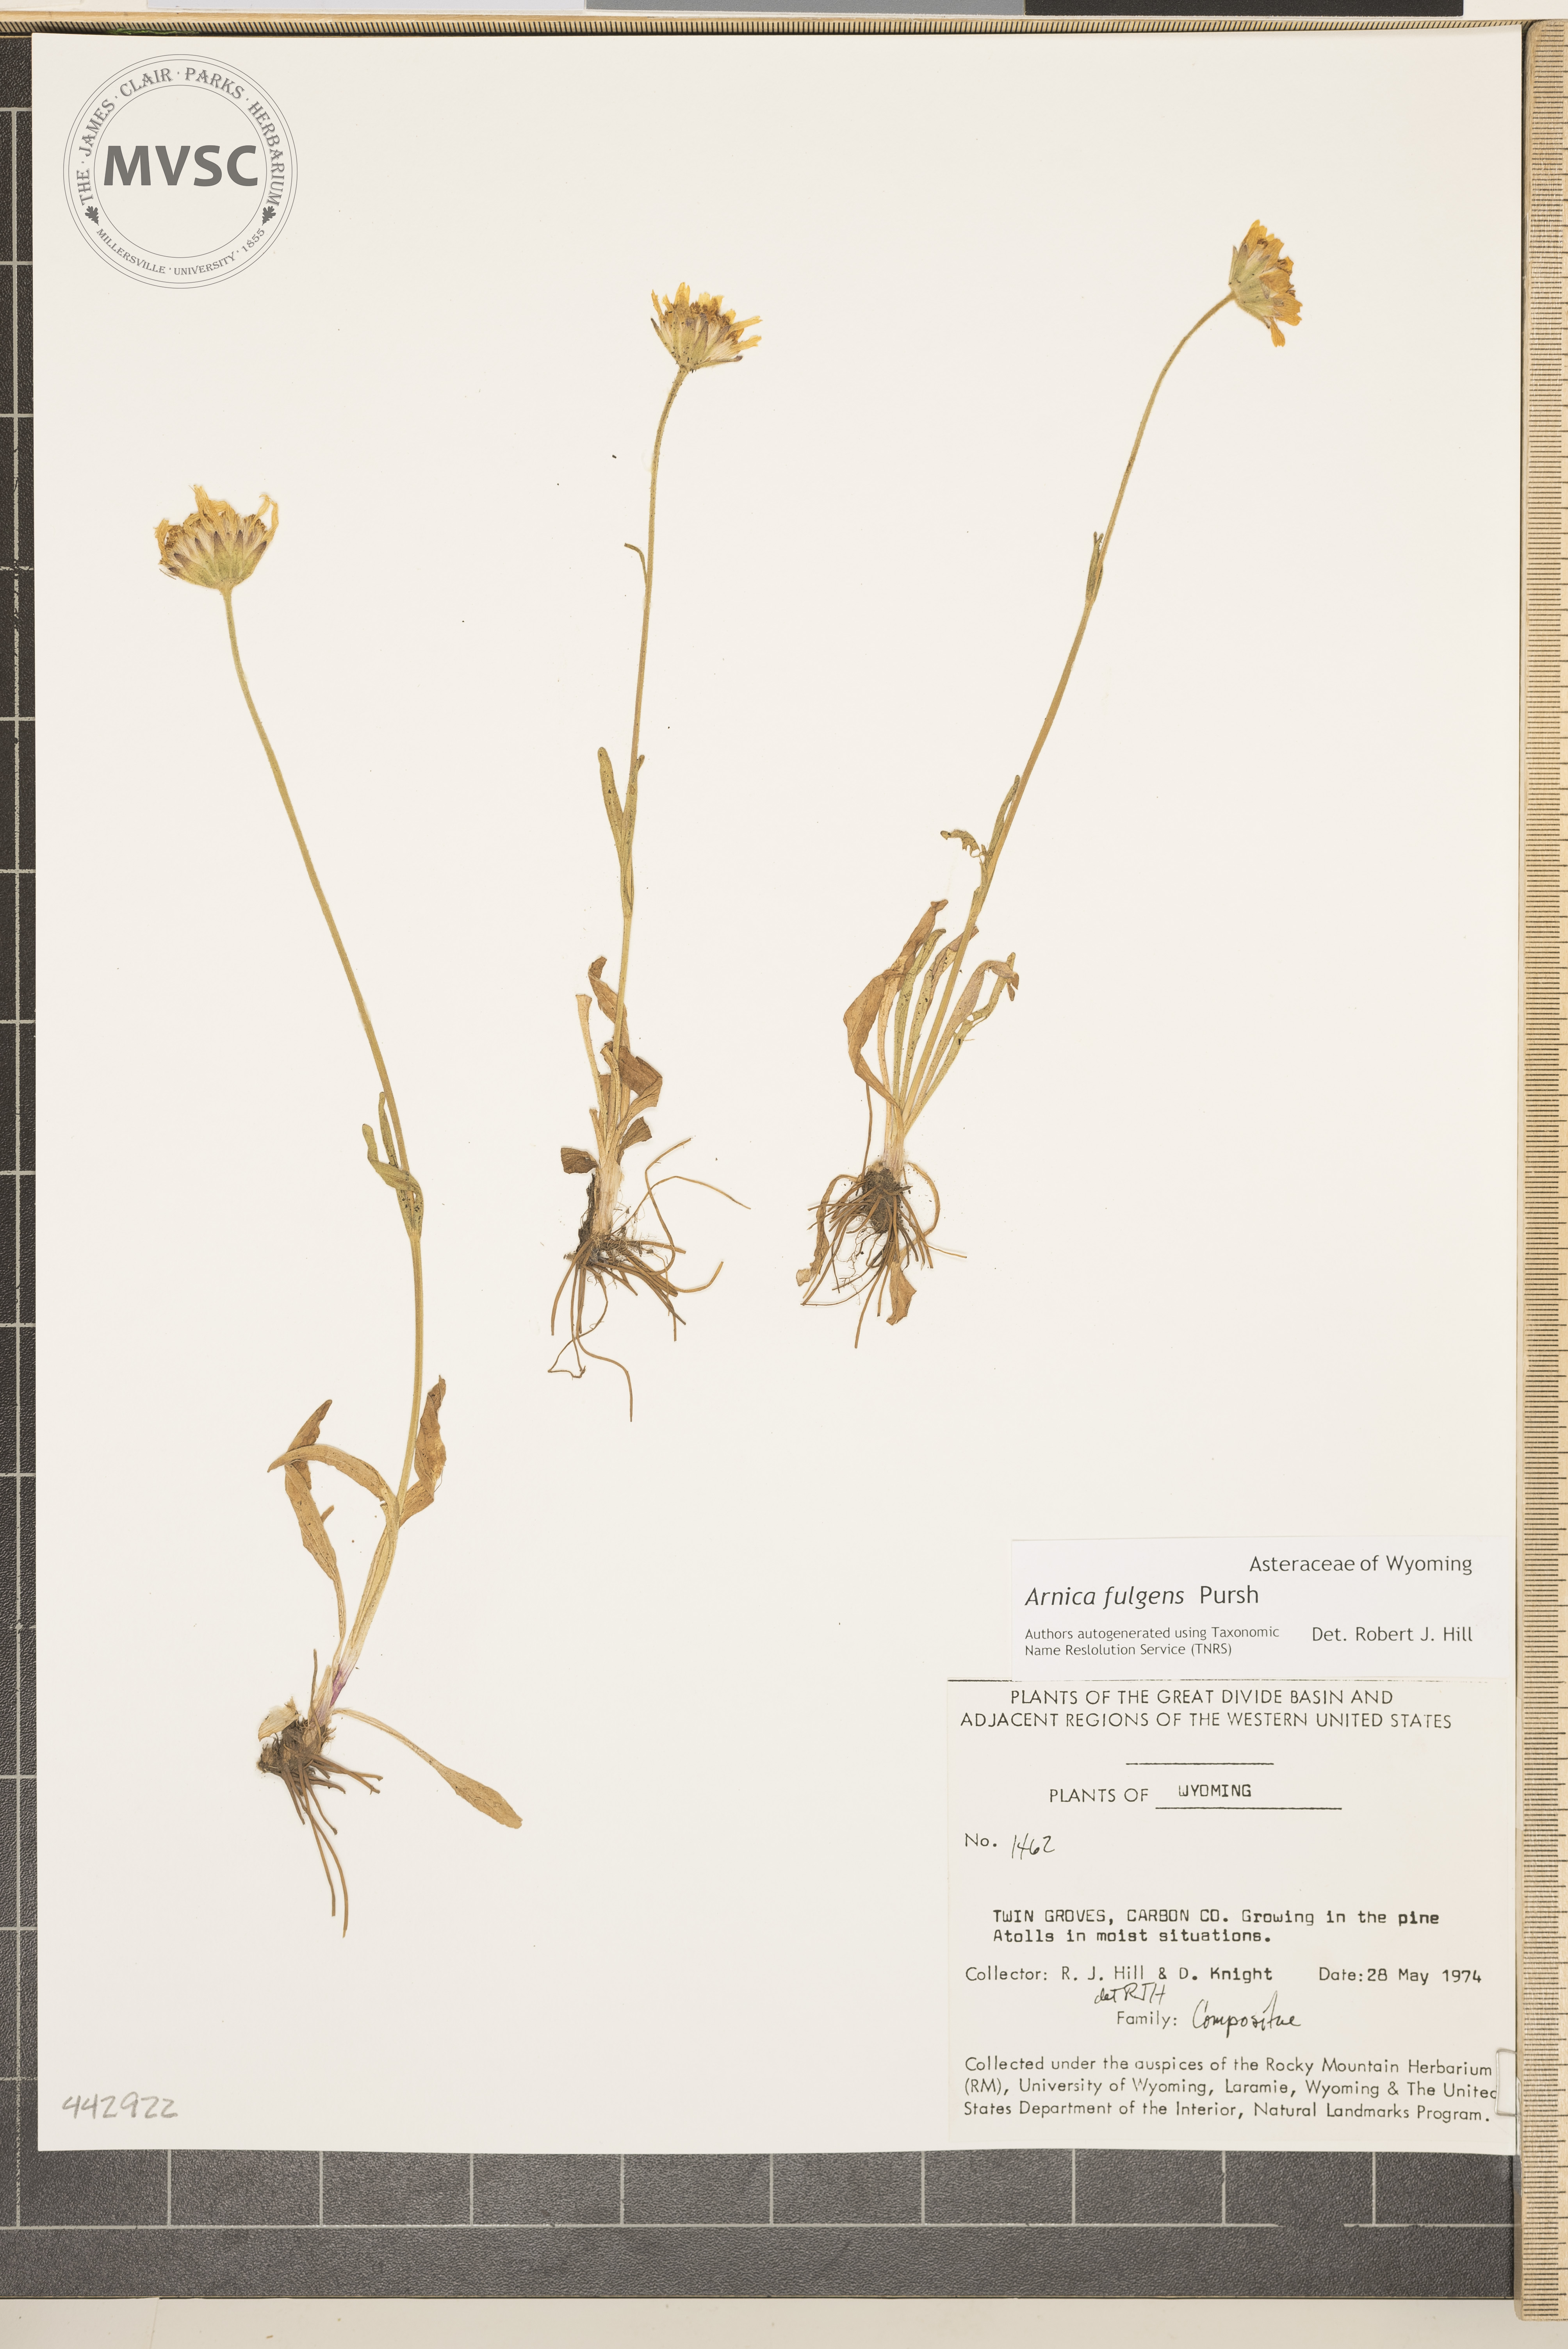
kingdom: Plantae
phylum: Tracheophyta
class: Magnoliopsida
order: Asterales
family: Asteraceae
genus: Arnica
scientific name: Arnica fulgens
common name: Foothill arnica
